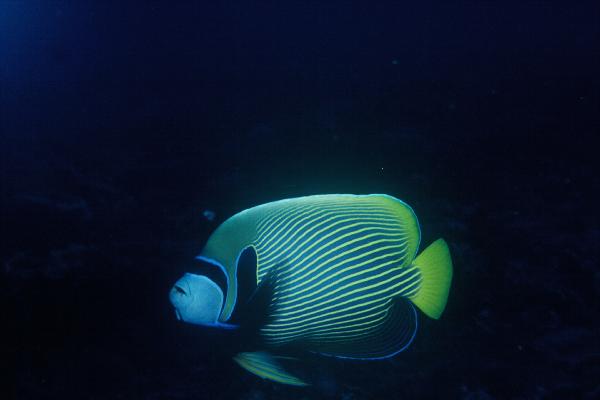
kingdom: Animalia
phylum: Chordata
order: Perciformes
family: Pomacanthidae
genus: Pomacanthus
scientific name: Pomacanthus imperator
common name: Emperor angelfish
